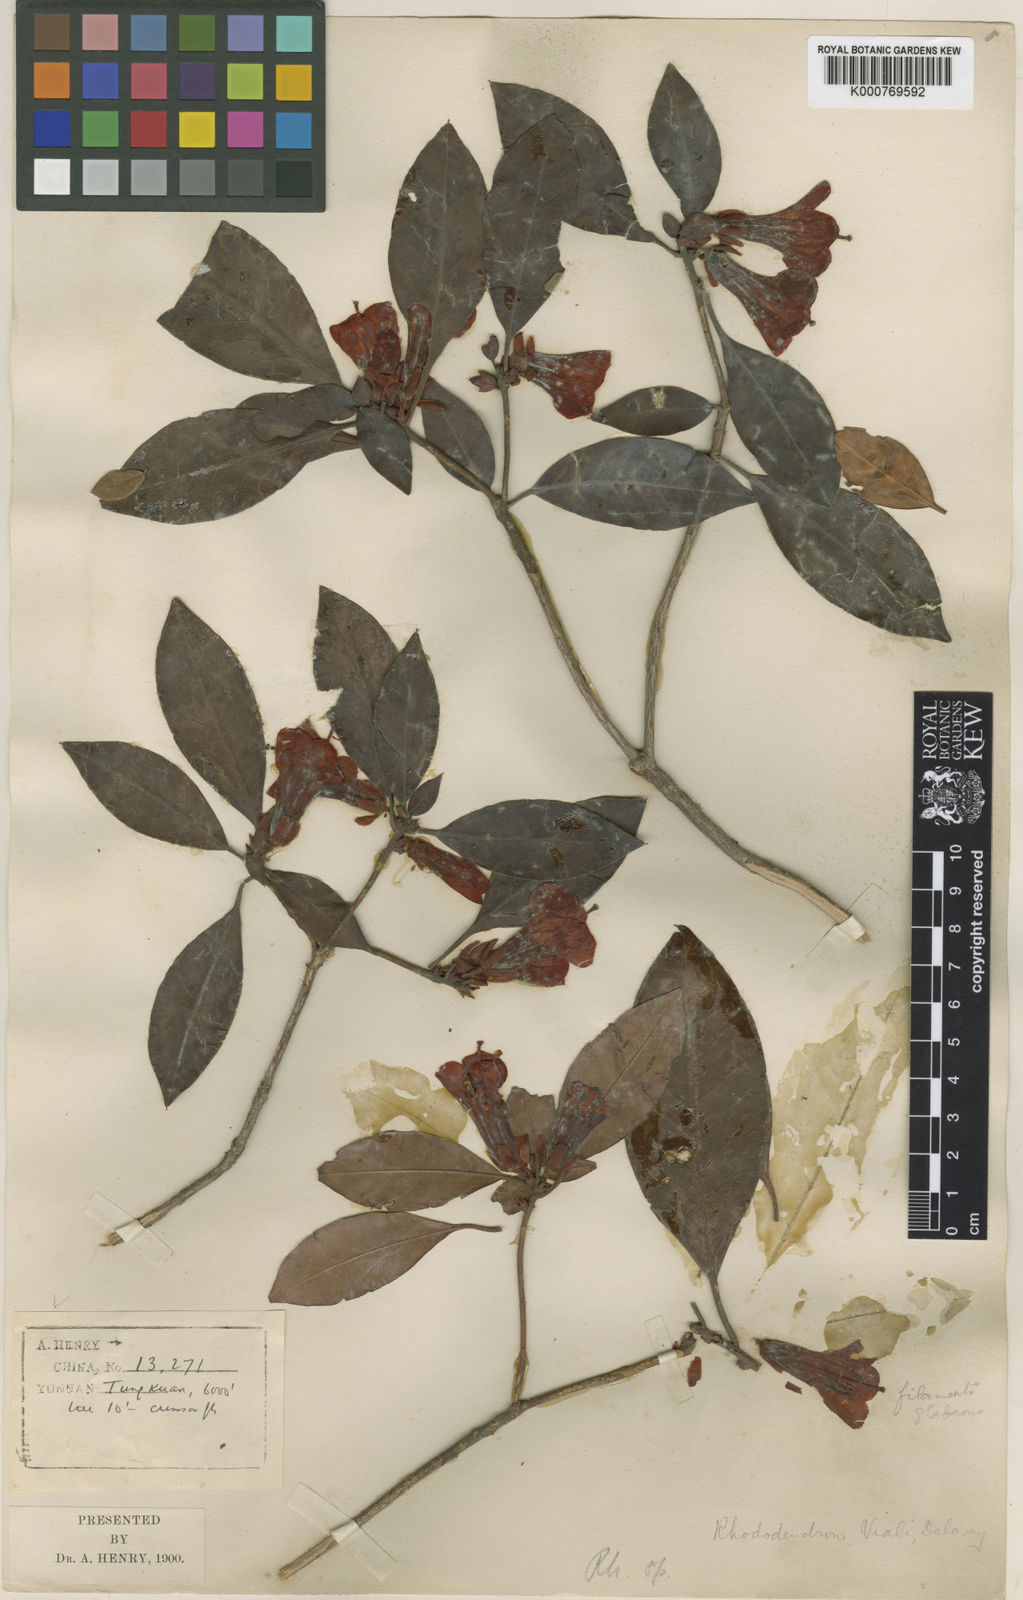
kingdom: Plantae
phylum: Tracheophyta
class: Magnoliopsida
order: Ericales
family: Ericaceae
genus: Rhododendron
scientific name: Rhododendron vialii
